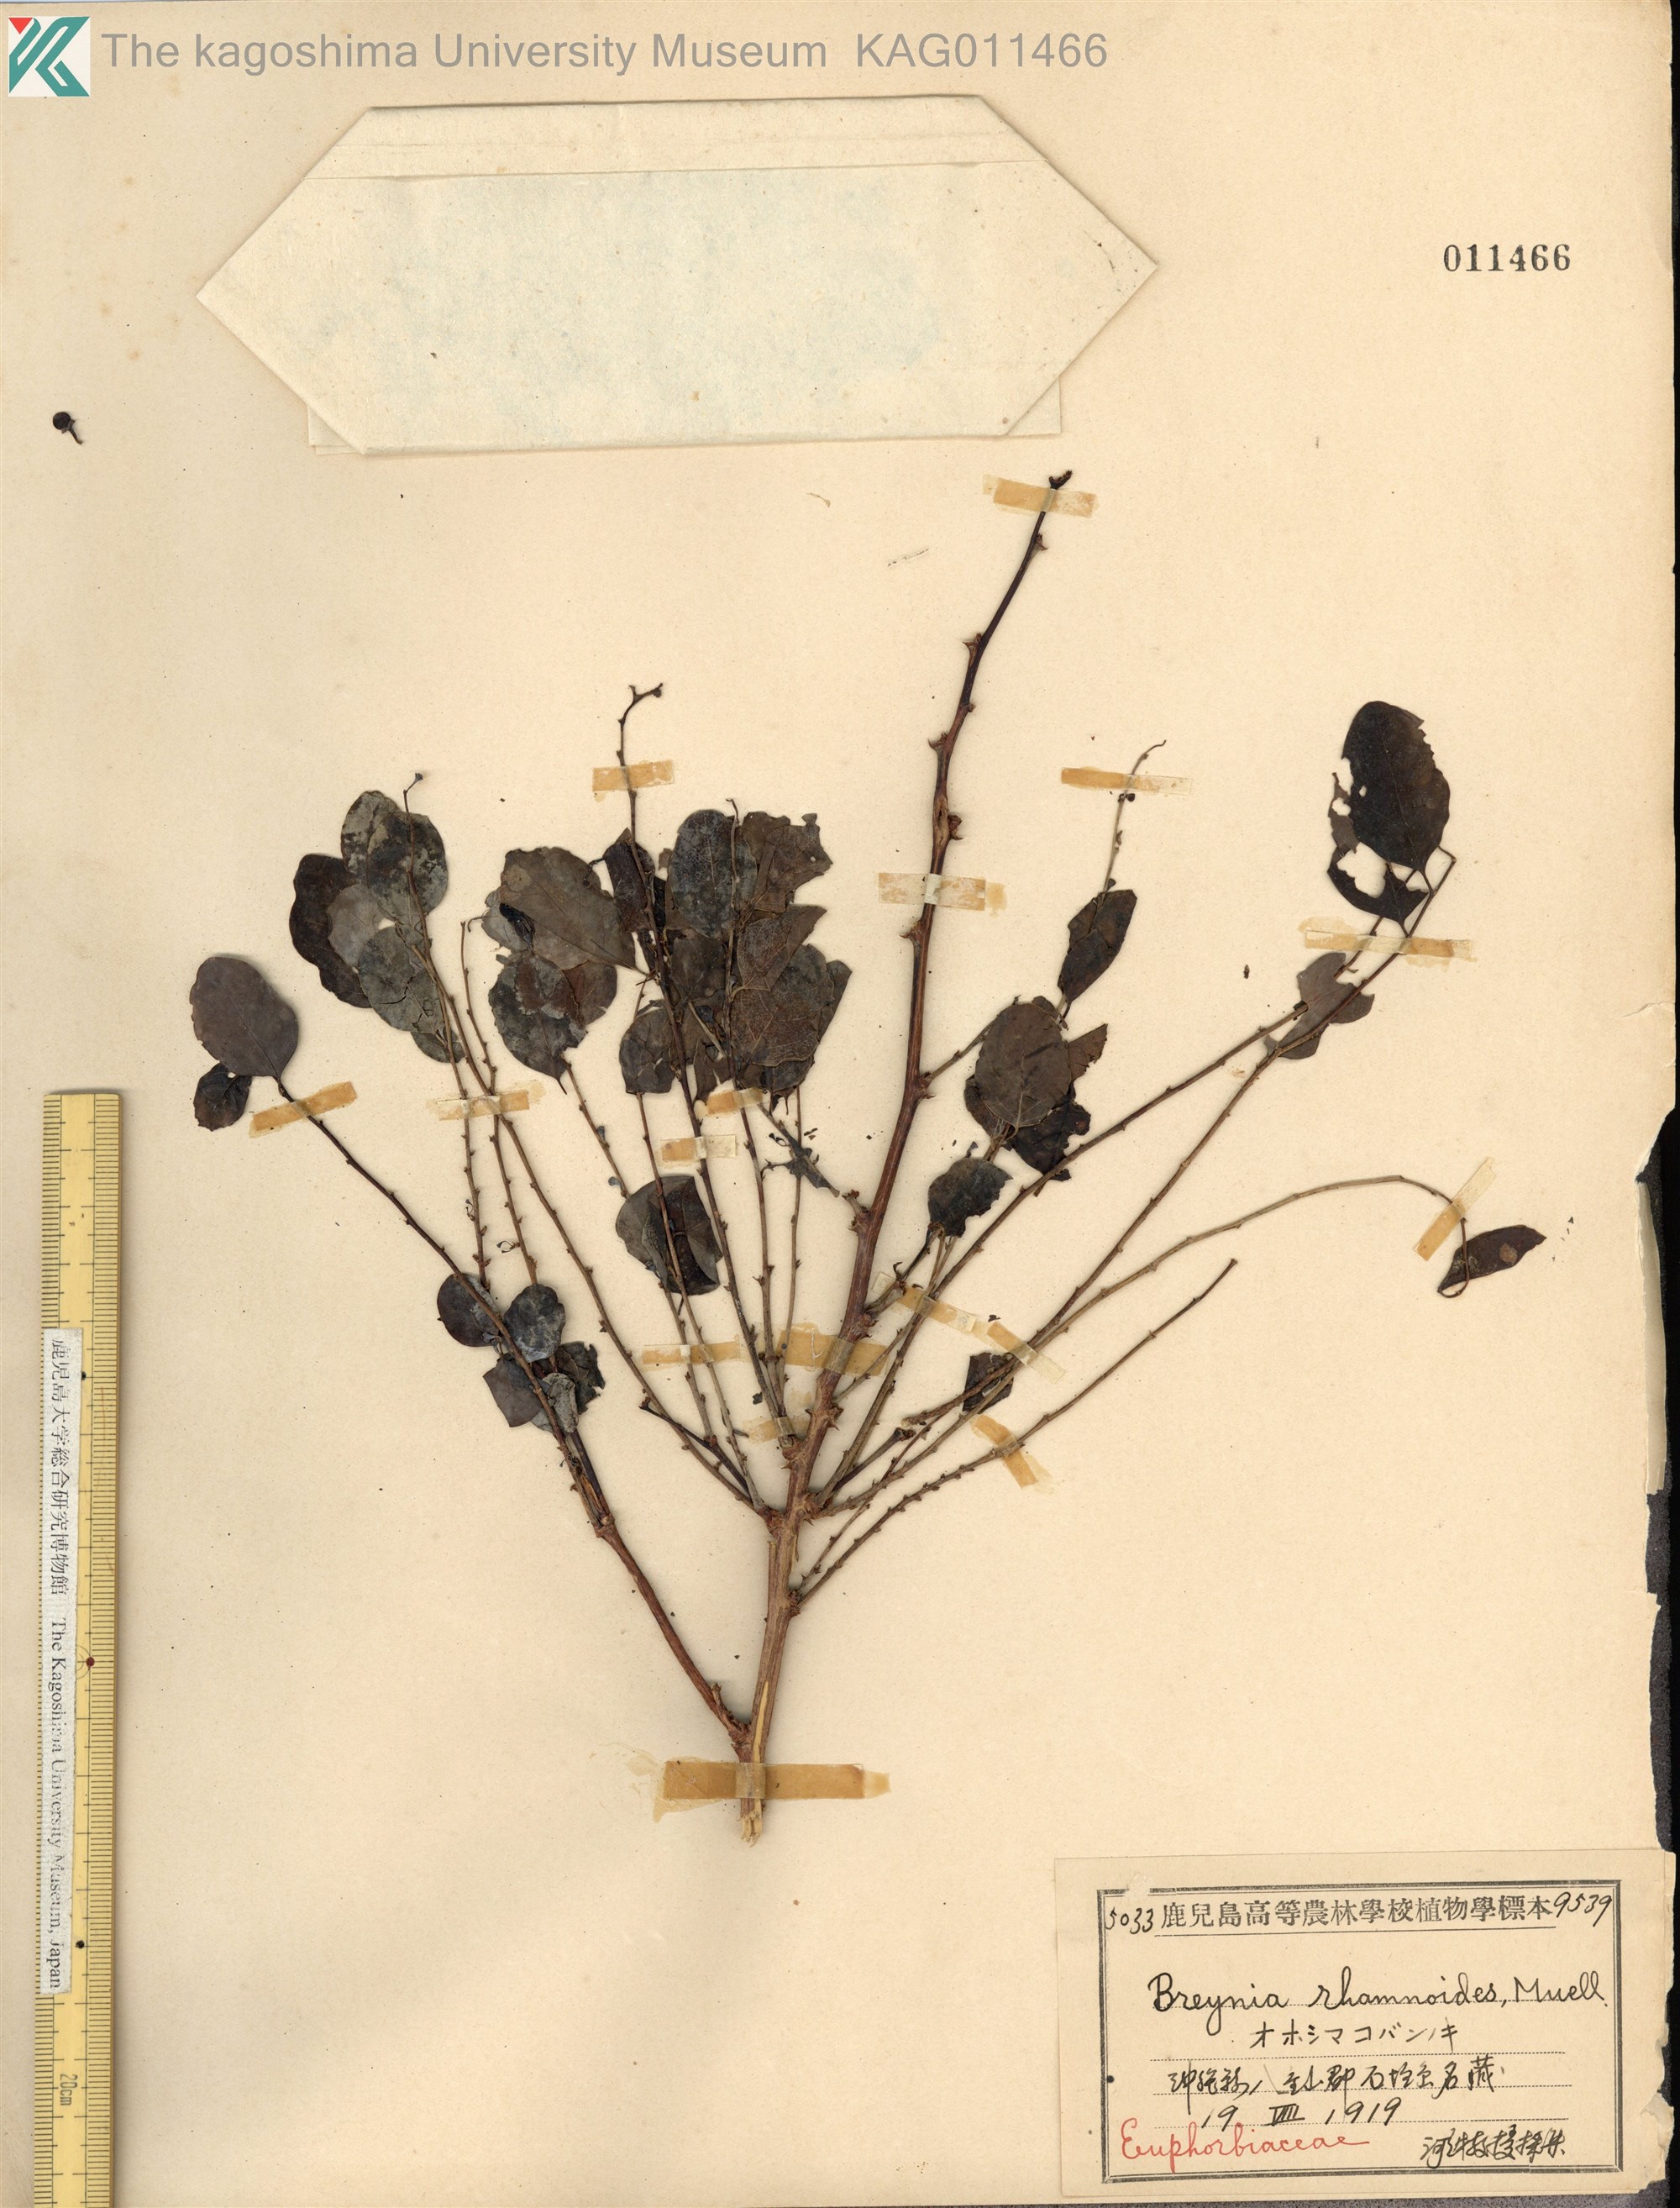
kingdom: Plantae
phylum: Tracheophyta
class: Magnoliopsida
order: Malpighiales
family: Phyllanthaceae
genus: Breynia
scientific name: Breynia vitis-idaea
